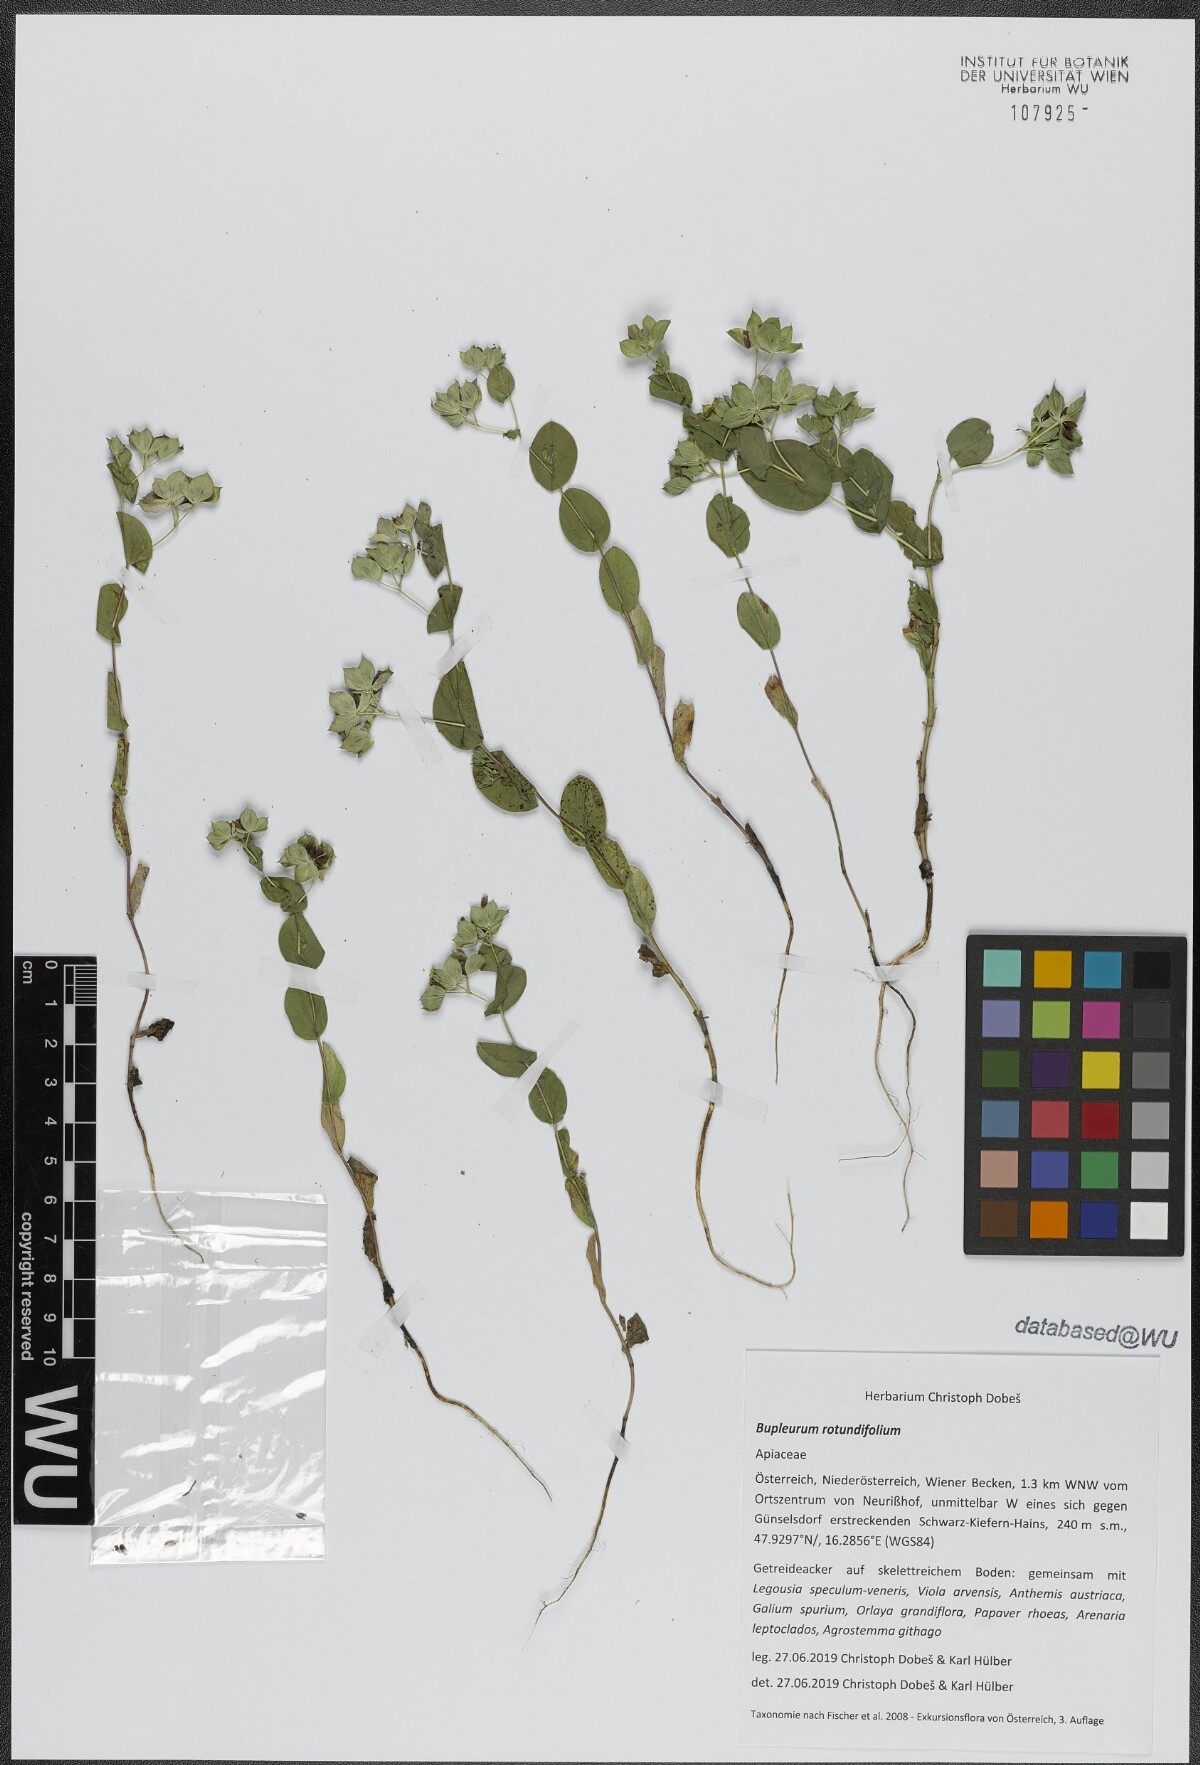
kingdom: Plantae
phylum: Tracheophyta
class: Magnoliopsida
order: Apiales
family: Apiaceae
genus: Bupleurum
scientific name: Bupleurum rotundifolium
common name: Thorow-wax
